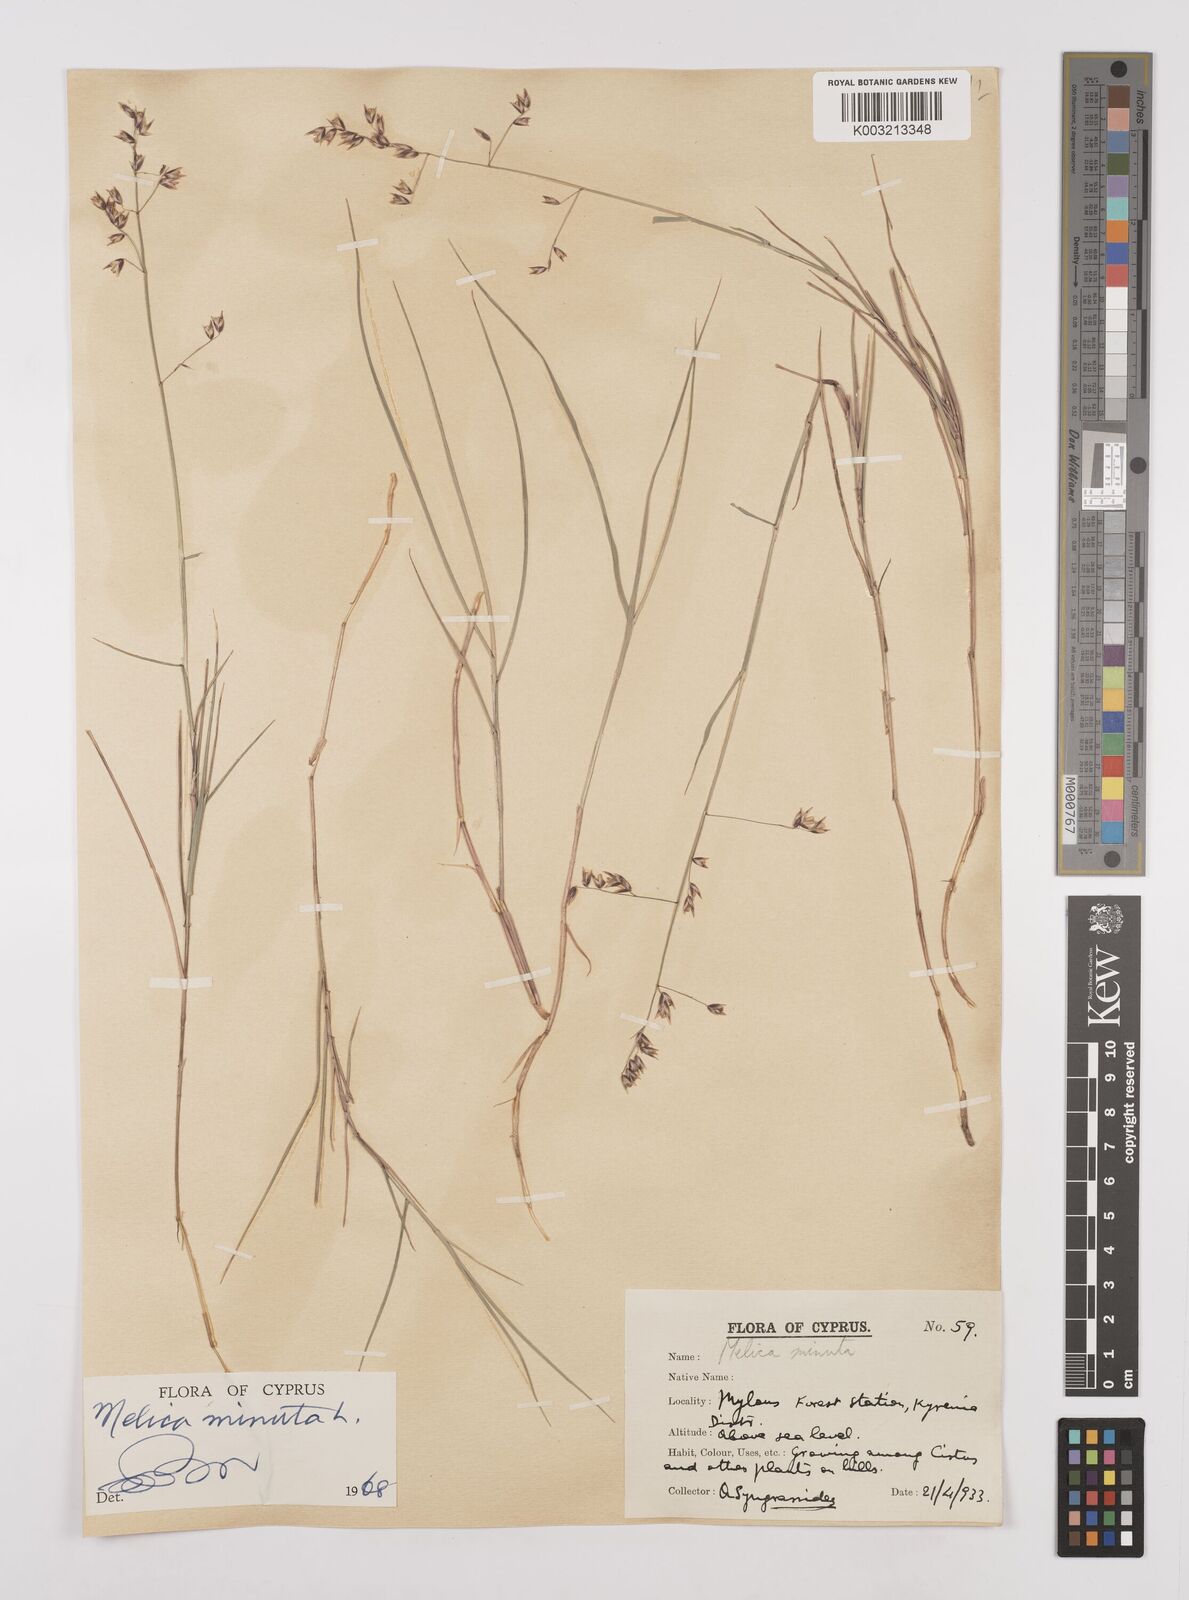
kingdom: Plantae
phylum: Tracheophyta
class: Liliopsida
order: Poales
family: Poaceae
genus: Melica
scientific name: Melica minuta
